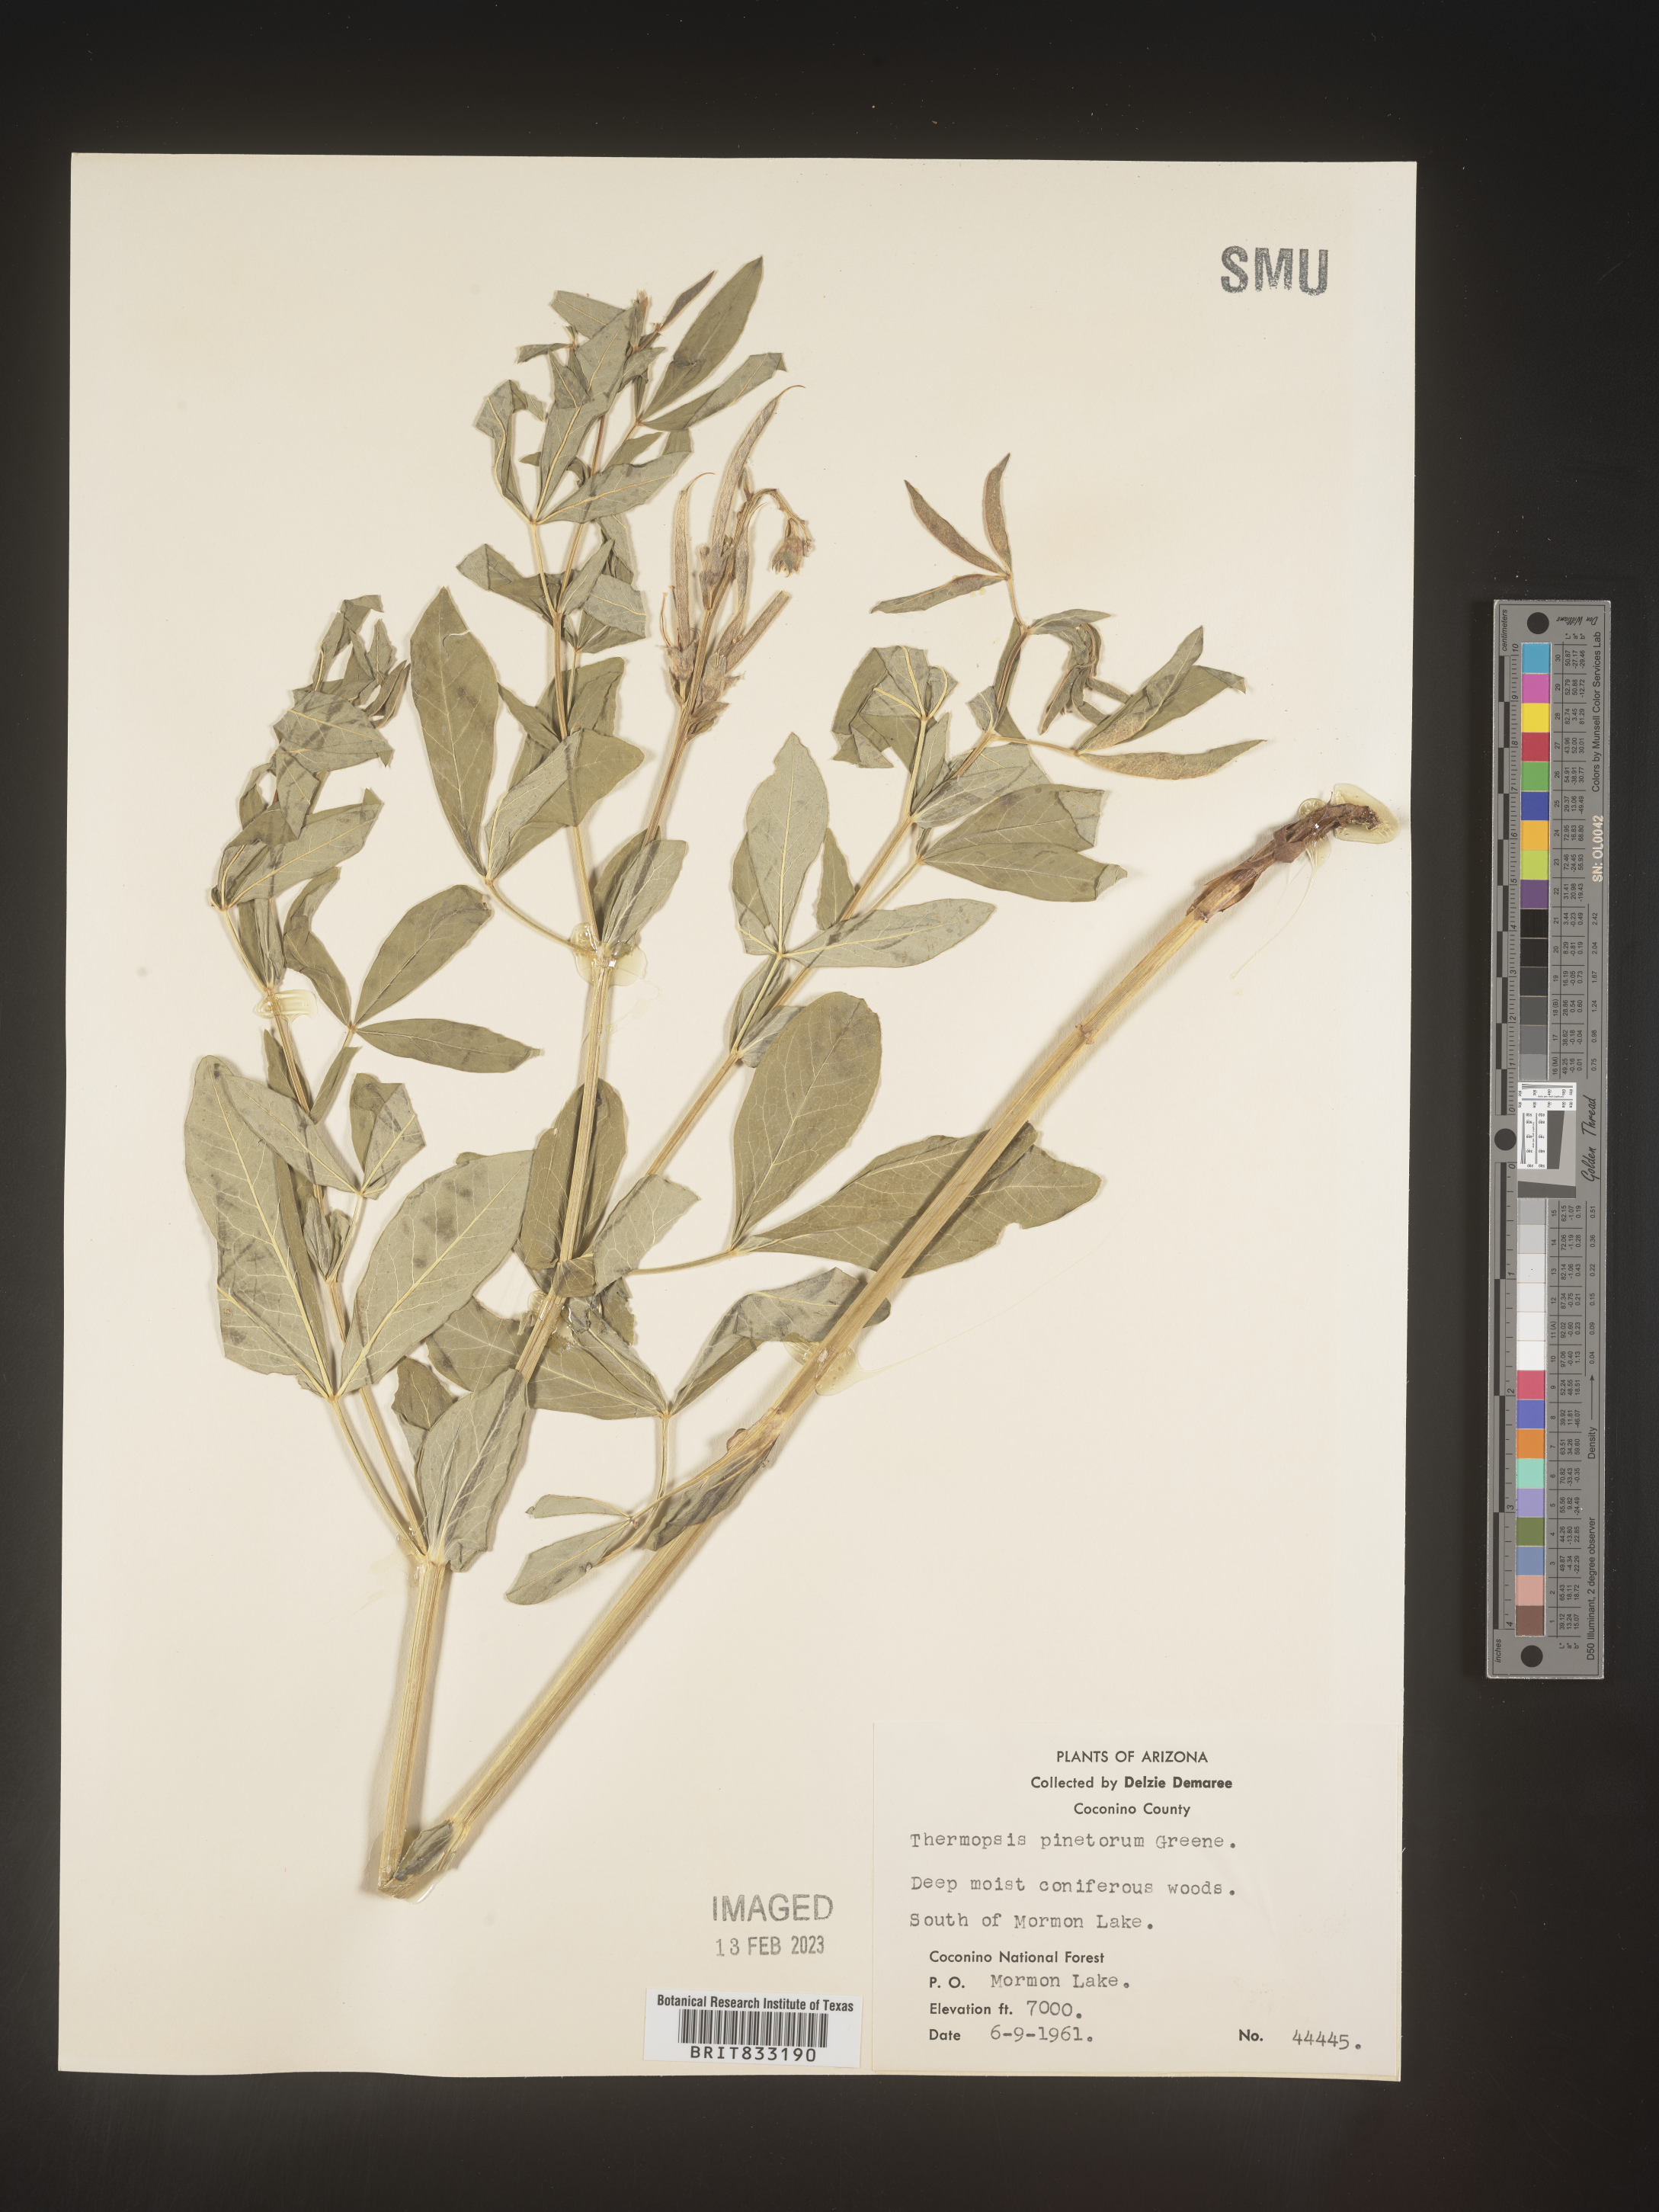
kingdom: Plantae
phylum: Tracheophyta
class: Magnoliopsida
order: Fabales
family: Fabaceae
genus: Thermopsis
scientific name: Thermopsis rhombifolia
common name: Circle-pod-pea
